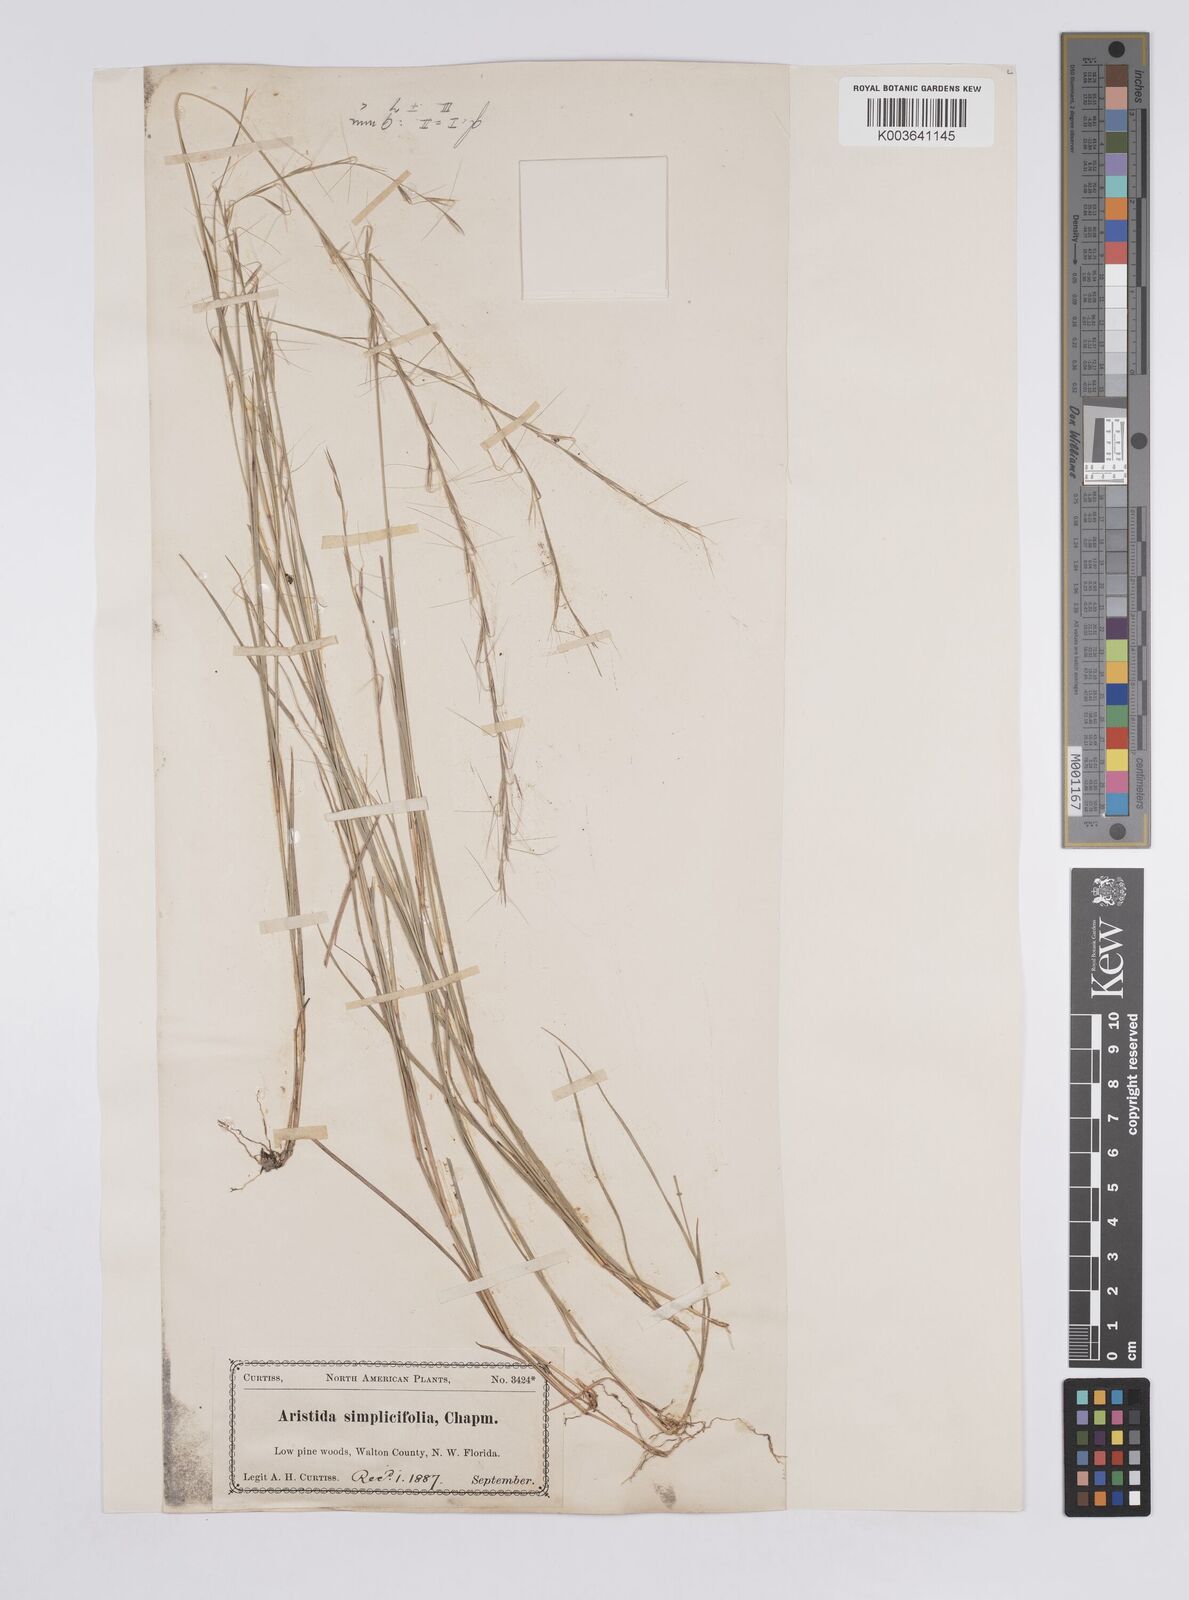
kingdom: Plantae
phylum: Tracheophyta
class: Liliopsida
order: Poales
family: Poaceae
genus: Aristida
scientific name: Aristida simpliciflora
